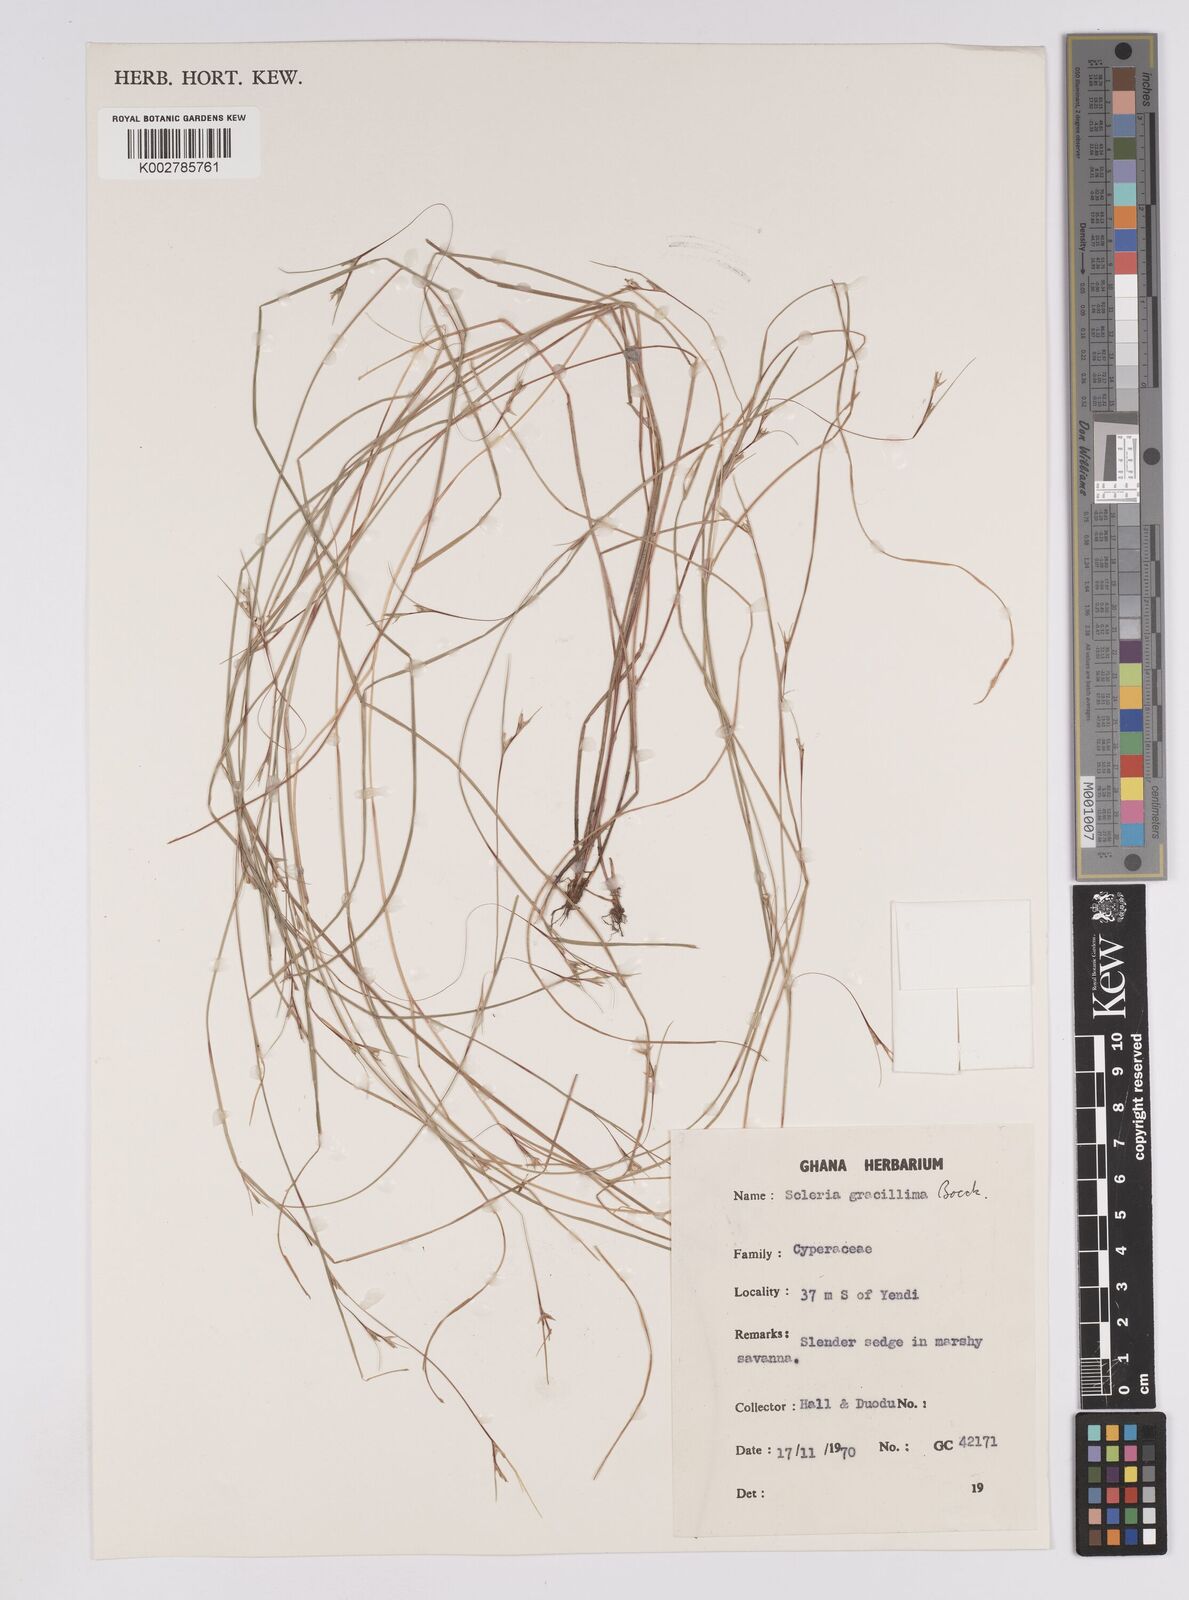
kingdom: Plantae
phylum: Tracheophyta
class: Liliopsida
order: Poales
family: Cyperaceae
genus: Scleria
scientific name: Scleria gracillima
